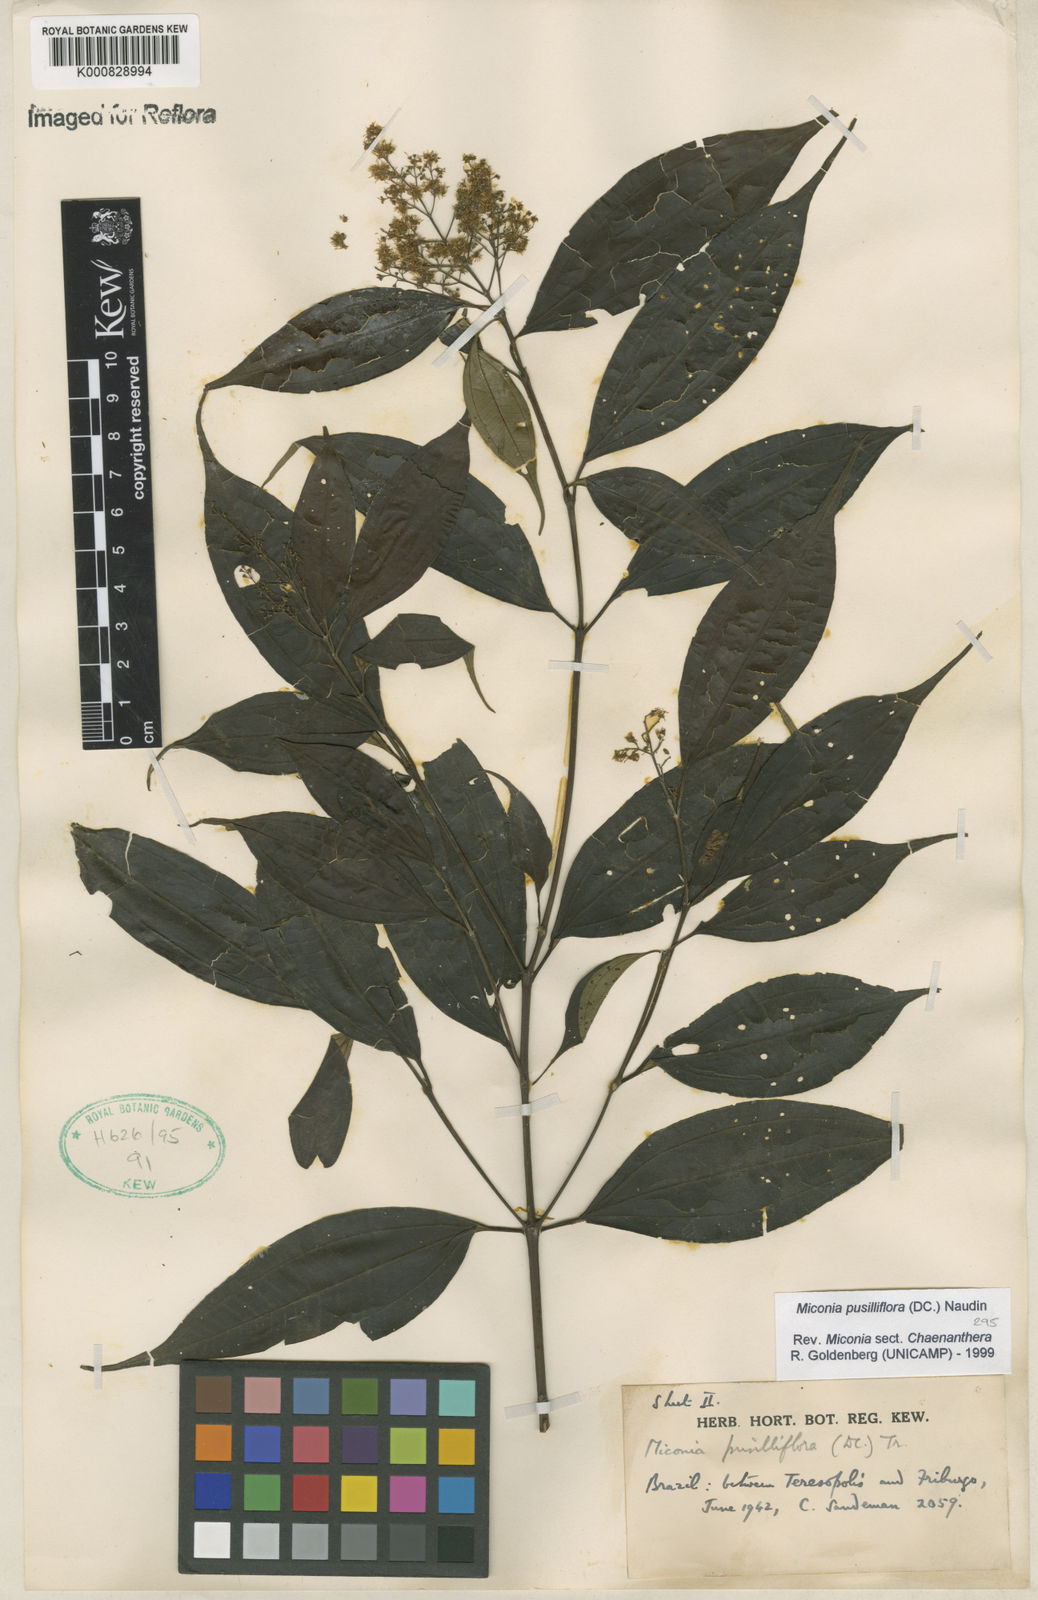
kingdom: Plantae
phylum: Tracheophyta
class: Magnoliopsida
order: Myrtales
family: Melastomataceae
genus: Miconia
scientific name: Miconia pusilliflora
